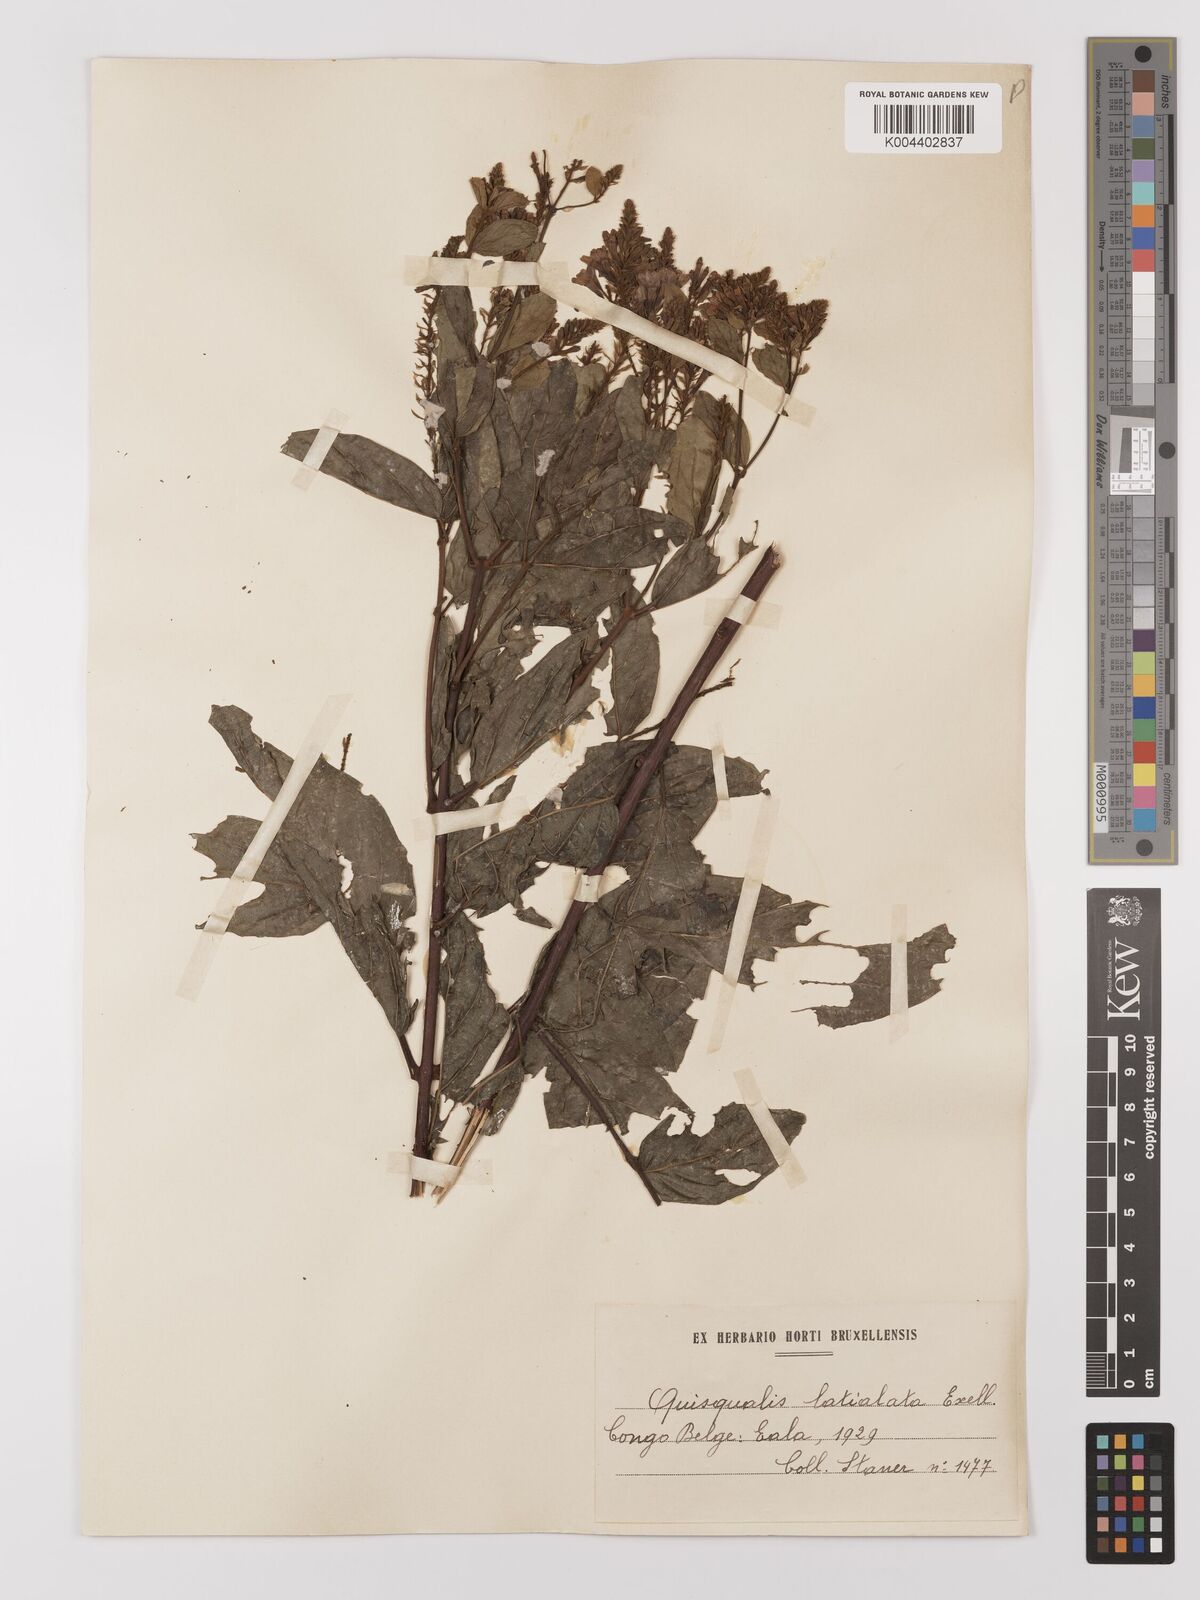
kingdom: Plantae
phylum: Tracheophyta
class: Magnoliopsida
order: Myrtales
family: Combretaceae
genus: Combretum
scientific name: Combretum latialatum
